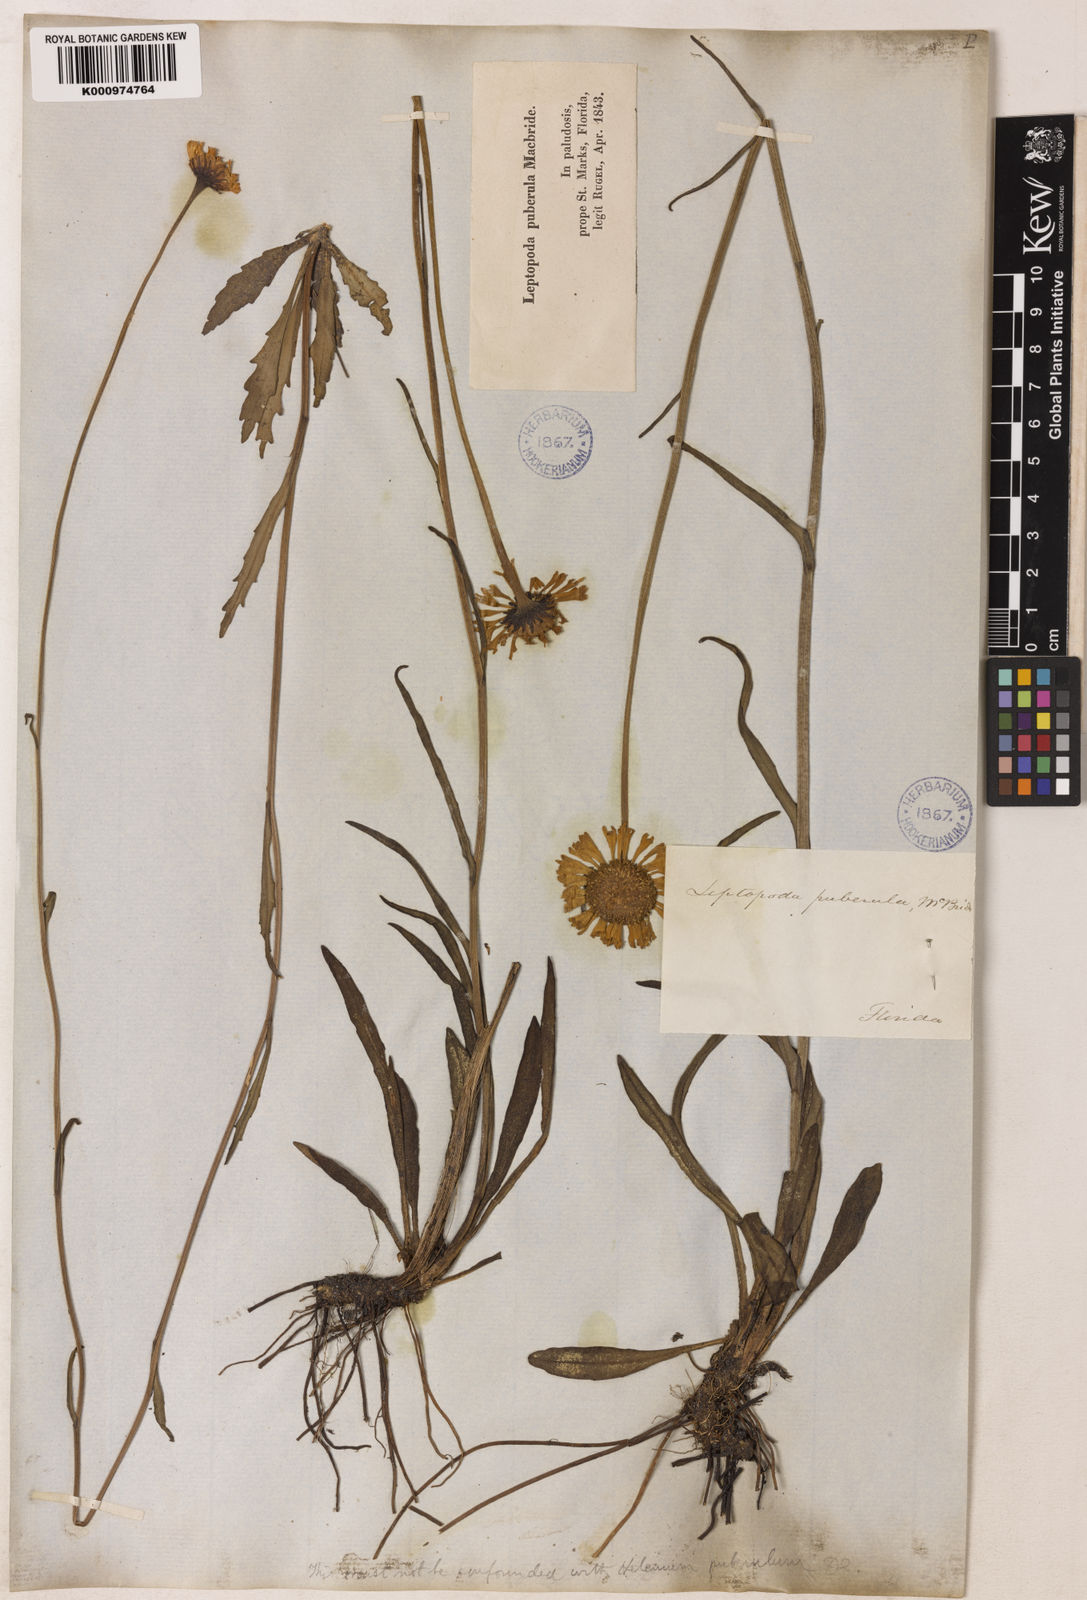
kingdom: Plantae
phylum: Tracheophyta
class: Magnoliopsida
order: Asterales
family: Asteraceae
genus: Helenium
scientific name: Helenium pinnatifidum
